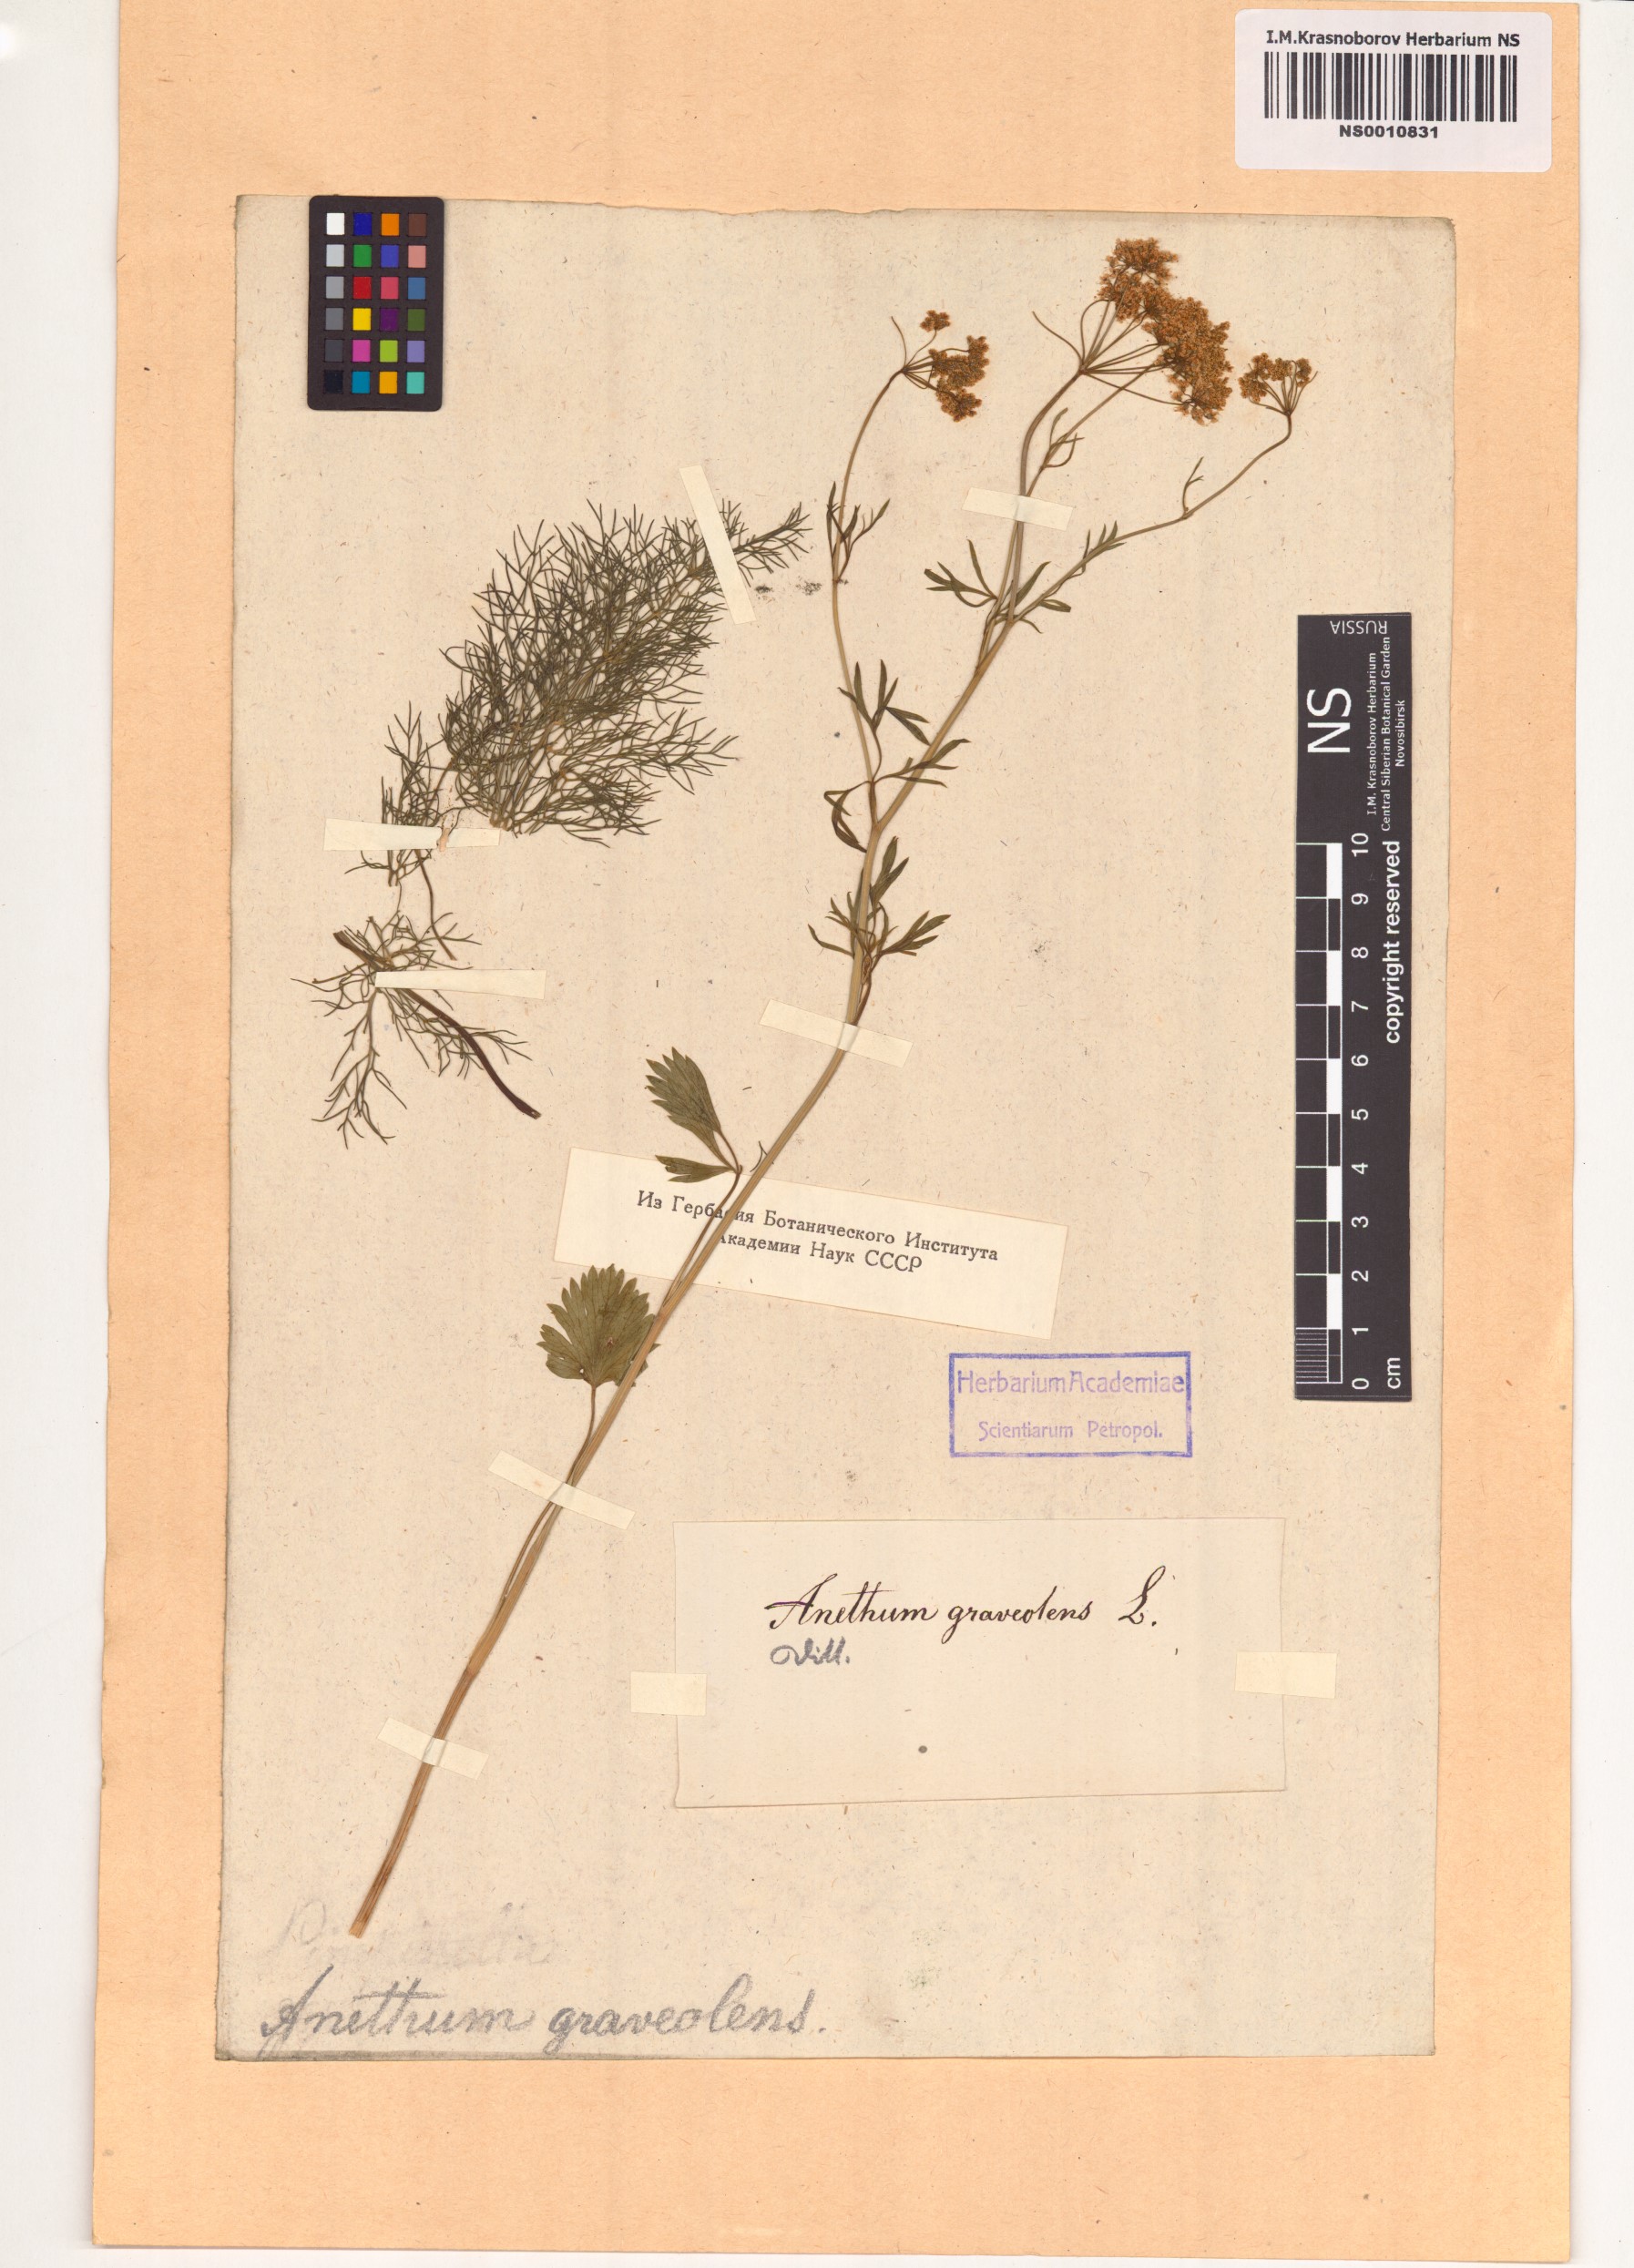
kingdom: Plantae
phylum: Tracheophyta
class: Magnoliopsida
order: Apiales
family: Apiaceae
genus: Anethum
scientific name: Anethum graveolens
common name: Dill
